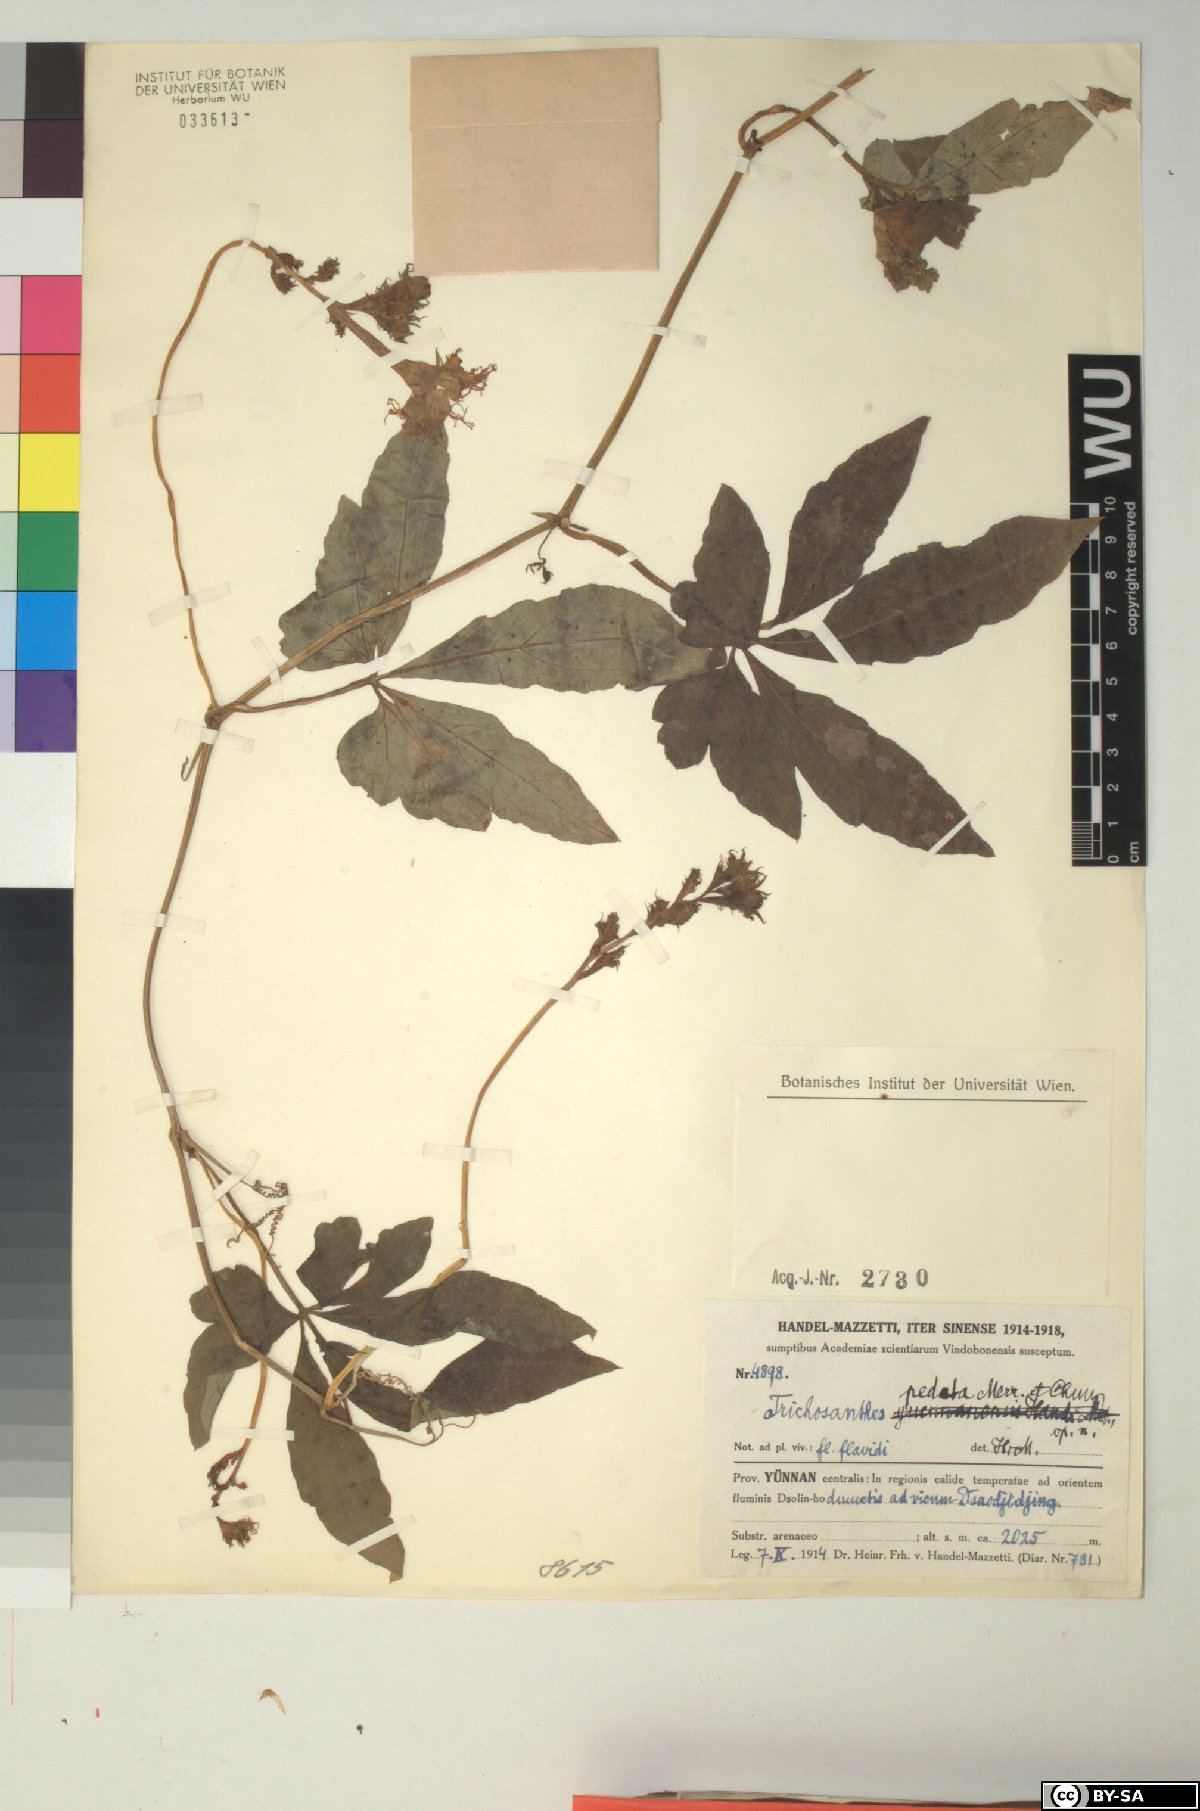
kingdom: Plantae
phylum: Tracheophyta
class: Magnoliopsida
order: Cucurbitales
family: Cucurbitaceae
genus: Trichosanthes
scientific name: Trichosanthes pedata
